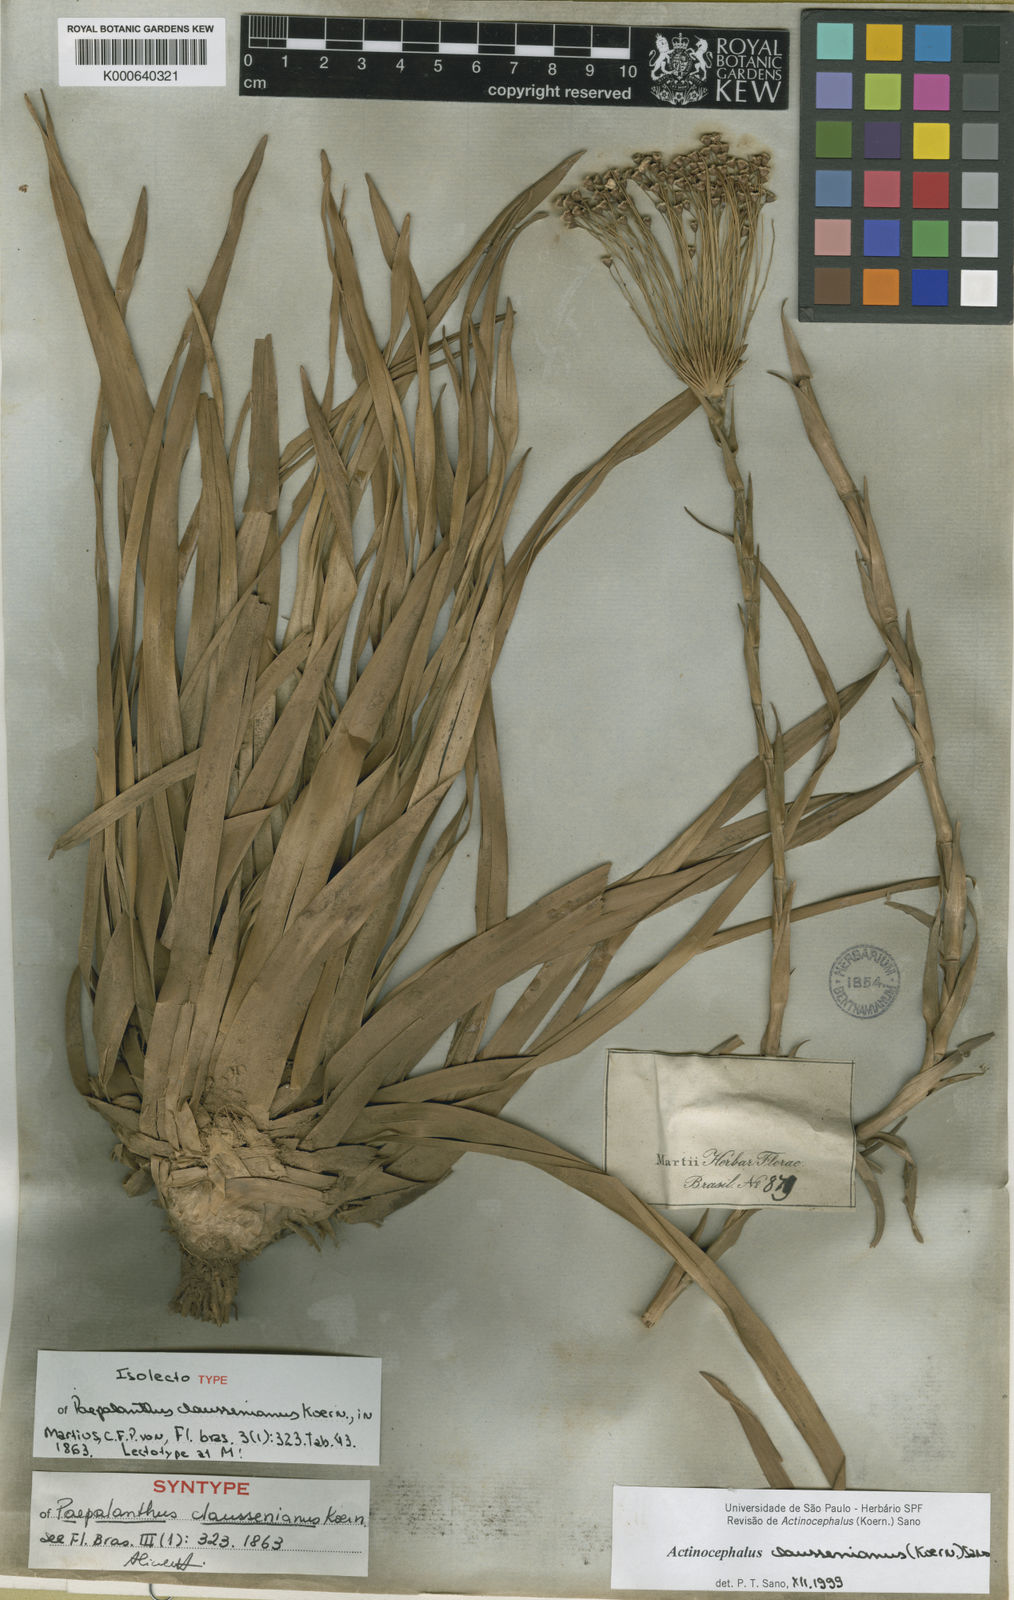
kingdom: Plantae
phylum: Tracheophyta
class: Liliopsida
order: Poales
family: Eriocaulaceae
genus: Paepalanthus
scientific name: Paepalanthus
